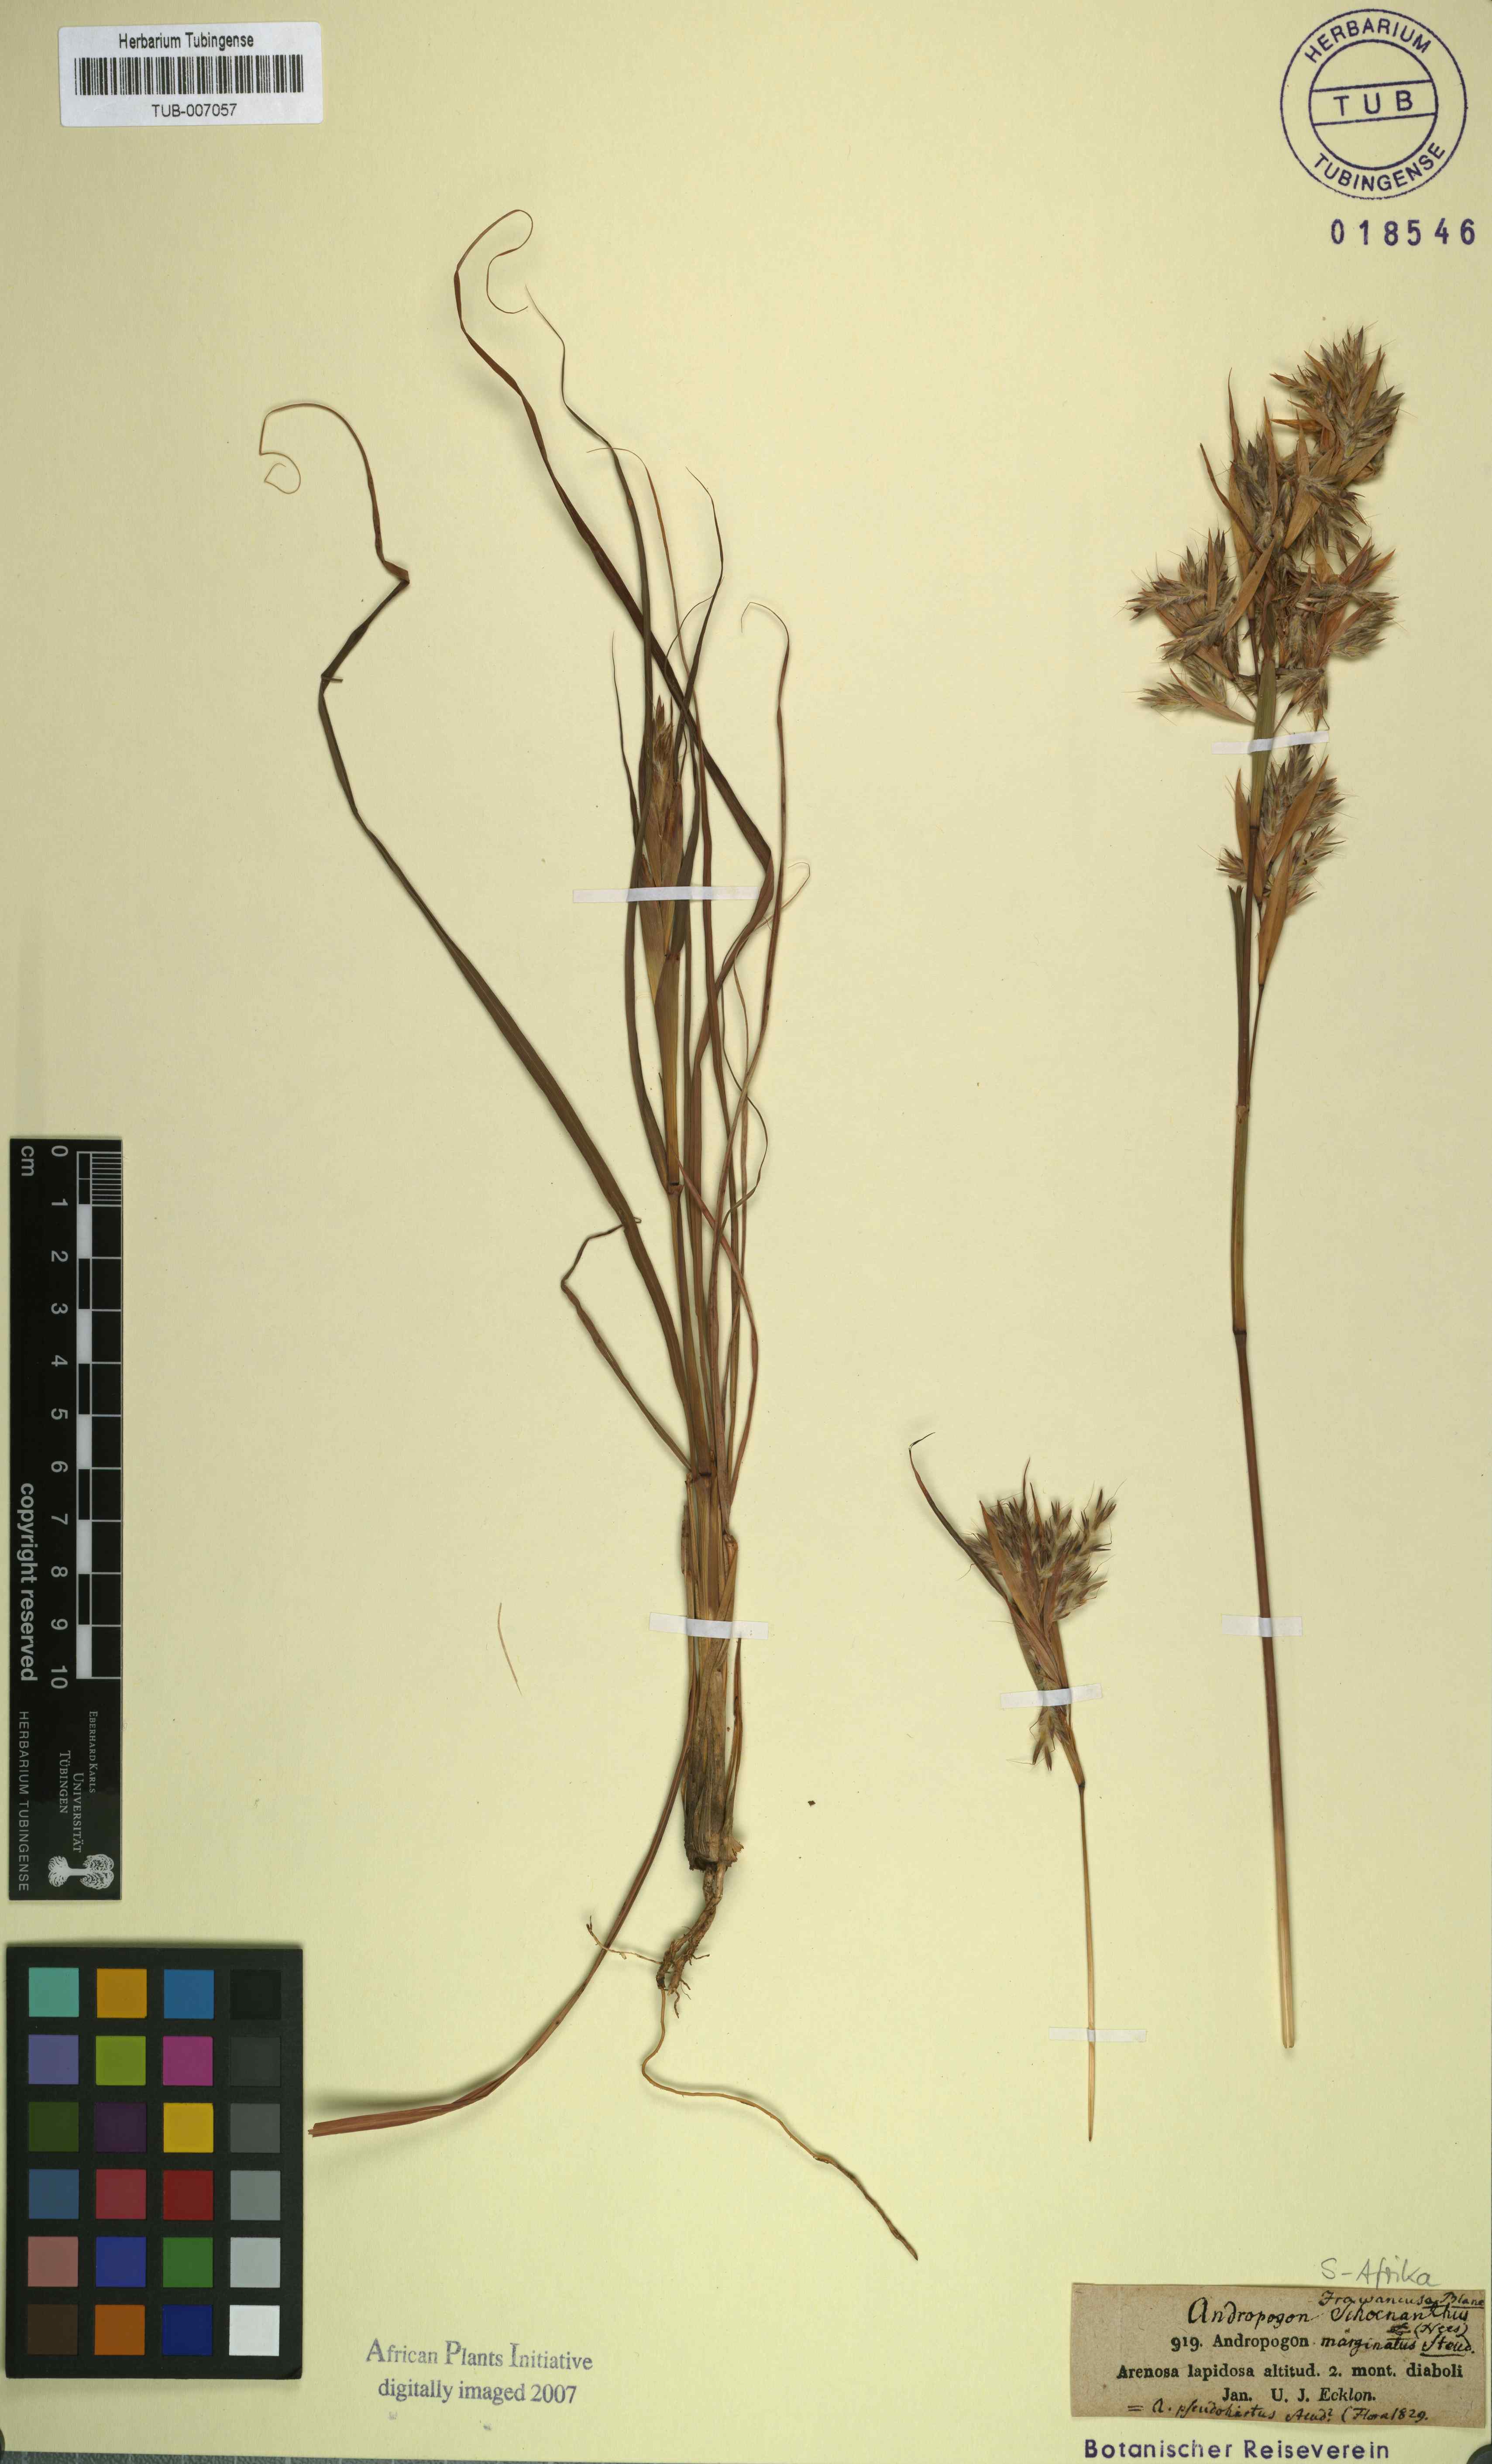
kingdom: Plantae
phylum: Tracheophyta
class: Liliopsida
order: Poales
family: Poaceae
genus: Cymbopogon
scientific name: Cymbopogon nardus
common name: Giant turpentine grass
